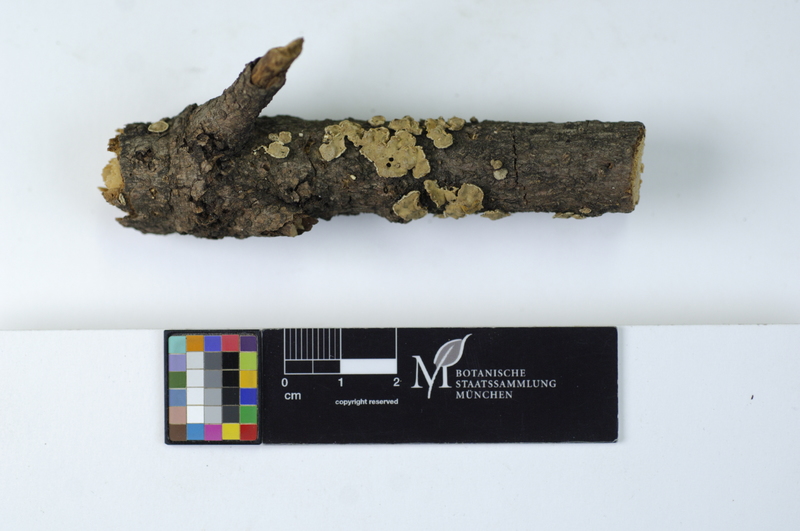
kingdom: Fungi
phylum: Basidiomycota
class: Agaricomycetes
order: Russulales
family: Stereaceae
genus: Aleurodiscus
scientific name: Aleurodiscus amorphus
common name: Orange discus
